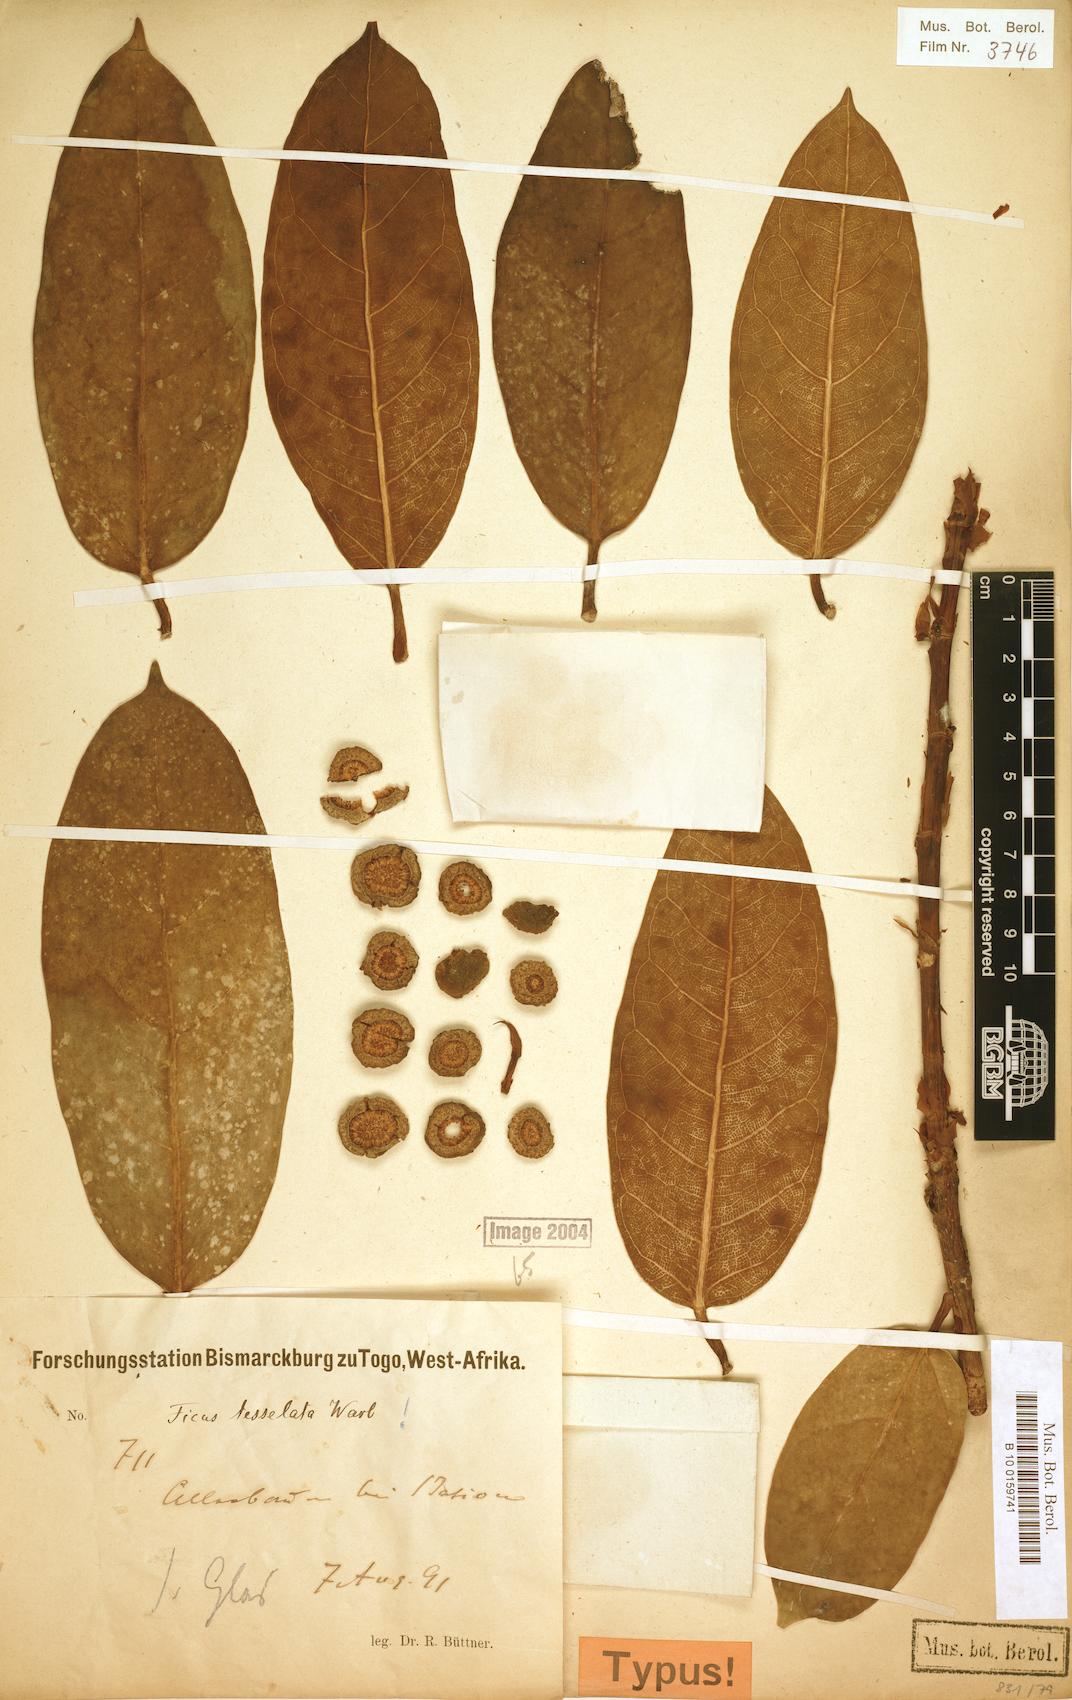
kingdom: Plantae
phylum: Tracheophyta
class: Magnoliopsida
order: Rosales
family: Moraceae
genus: Ficus
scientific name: Ficus tesselata
